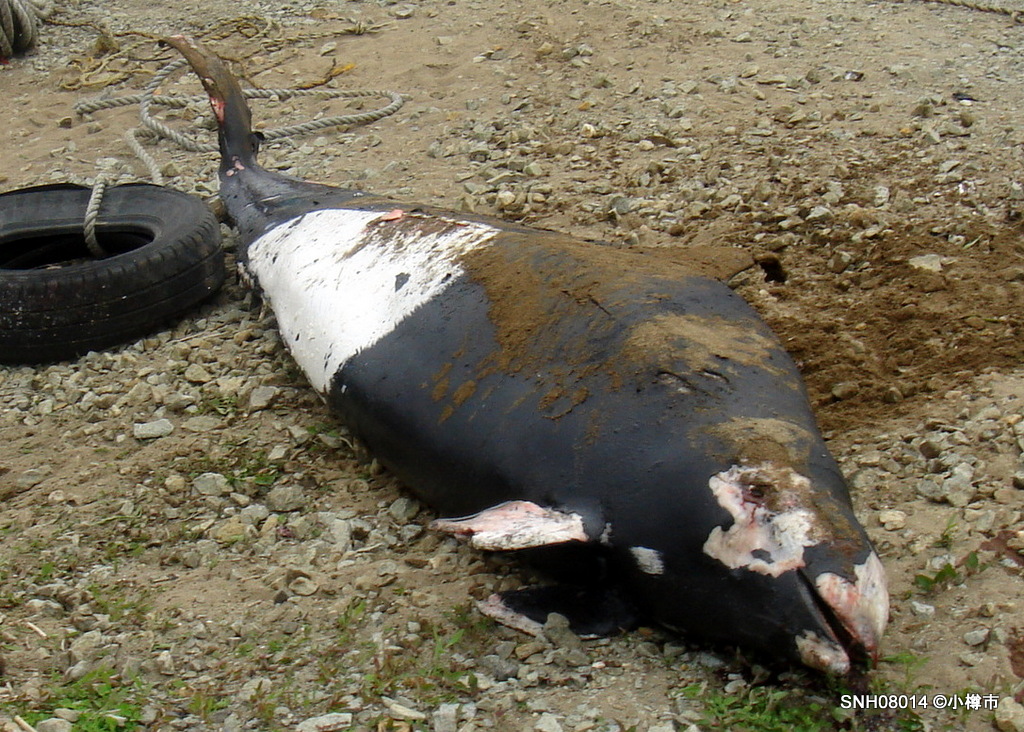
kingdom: Animalia
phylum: Chordata
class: Mammalia
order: Cetacea
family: Phocoenidae
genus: Phocoenoides
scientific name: Phocoenoides dalli
